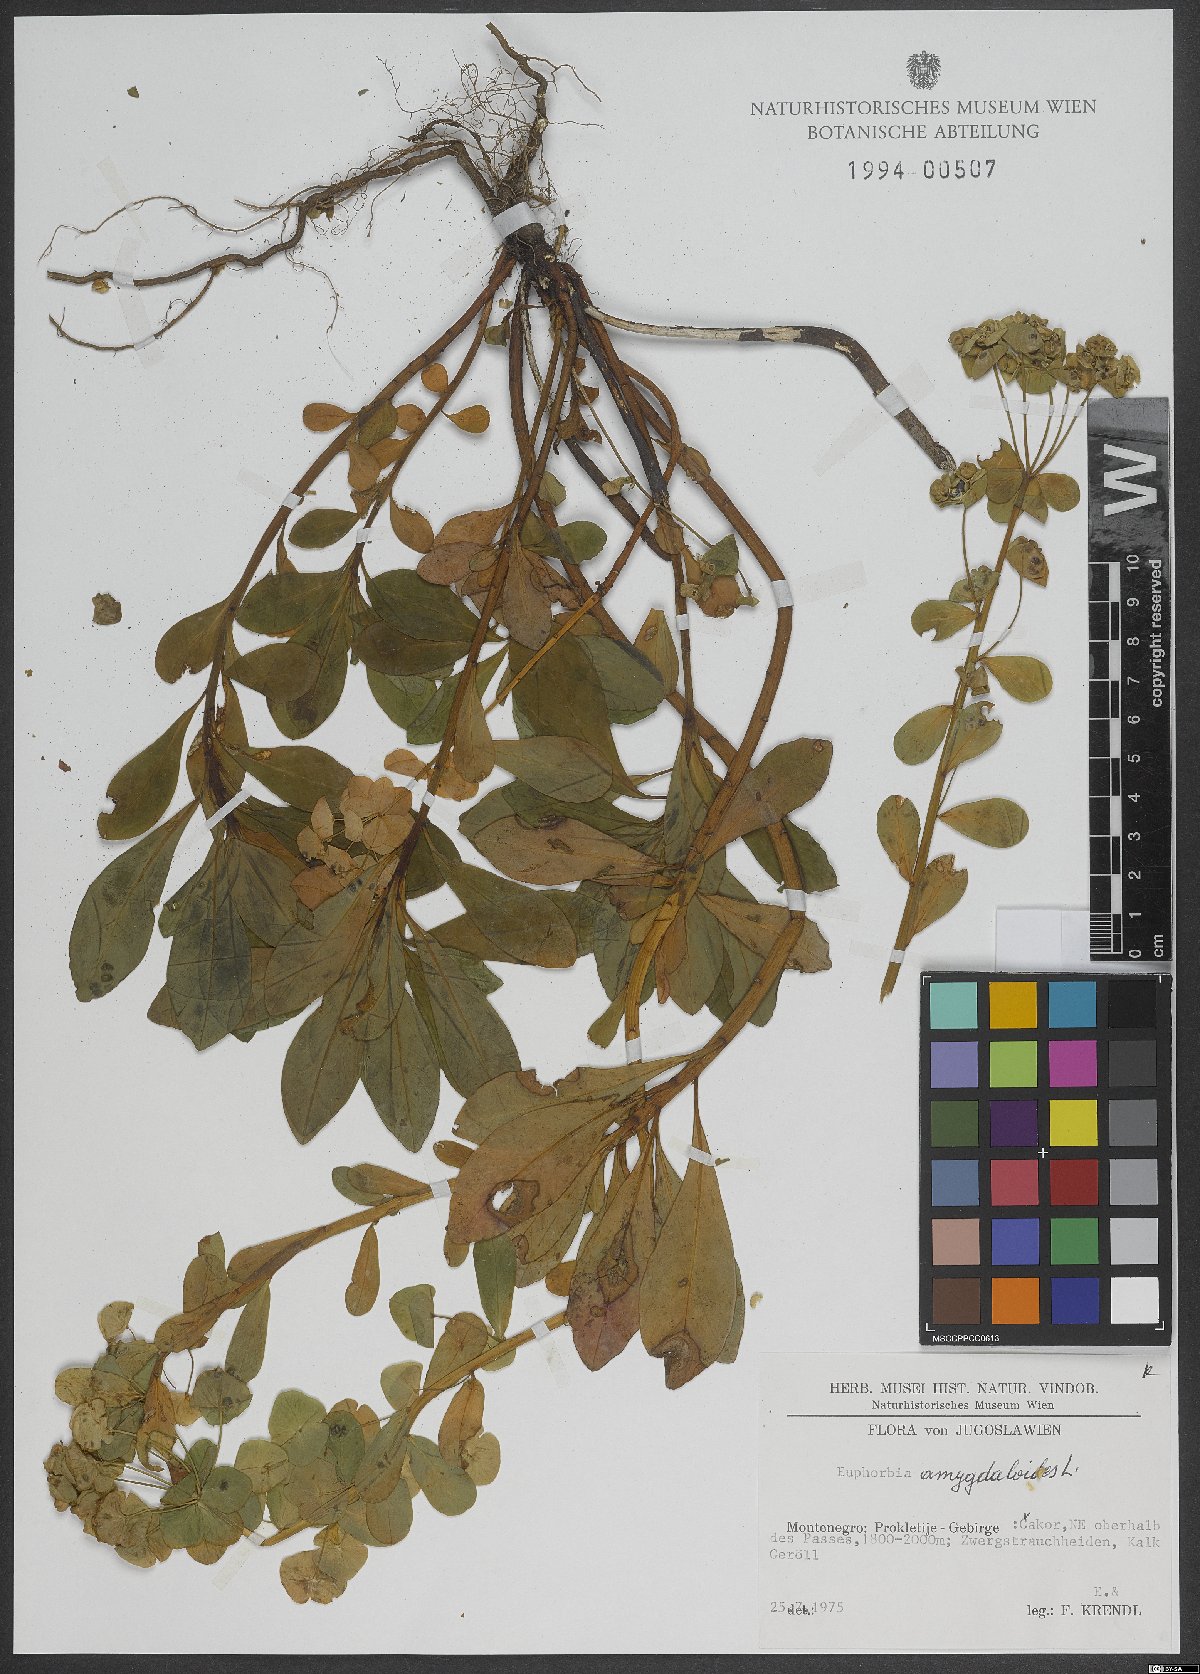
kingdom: Plantae
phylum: Tracheophyta
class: Magnoliopsida
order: Malpighiales
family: Euphorbiaceae
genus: Euphorbia
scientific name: Euphorbia amygdaloides
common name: Wood spurge
